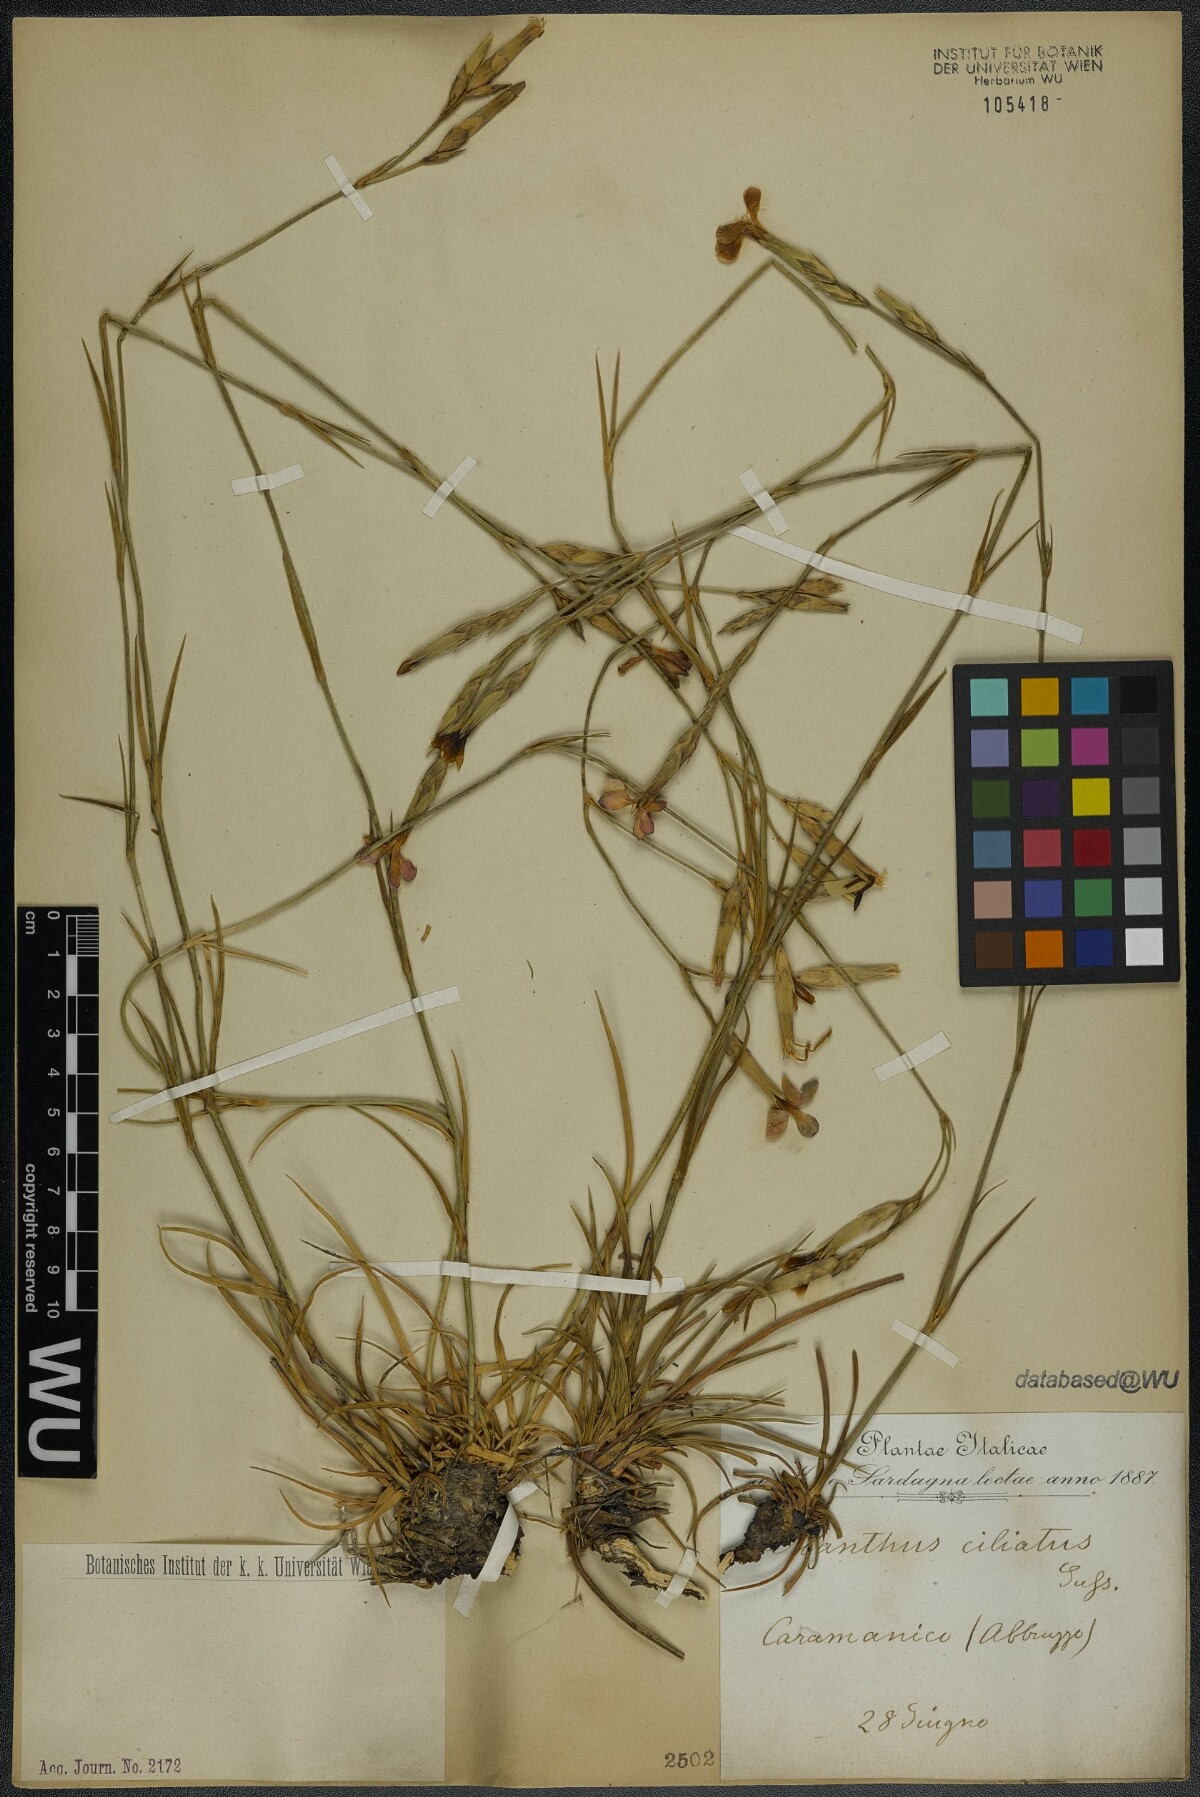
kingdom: Plantae
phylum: Tracheophyta
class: Magnoliopsida
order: Caryophyllales
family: Caryophyllaceae
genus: Dianthus
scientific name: Dianthus ciliatus
